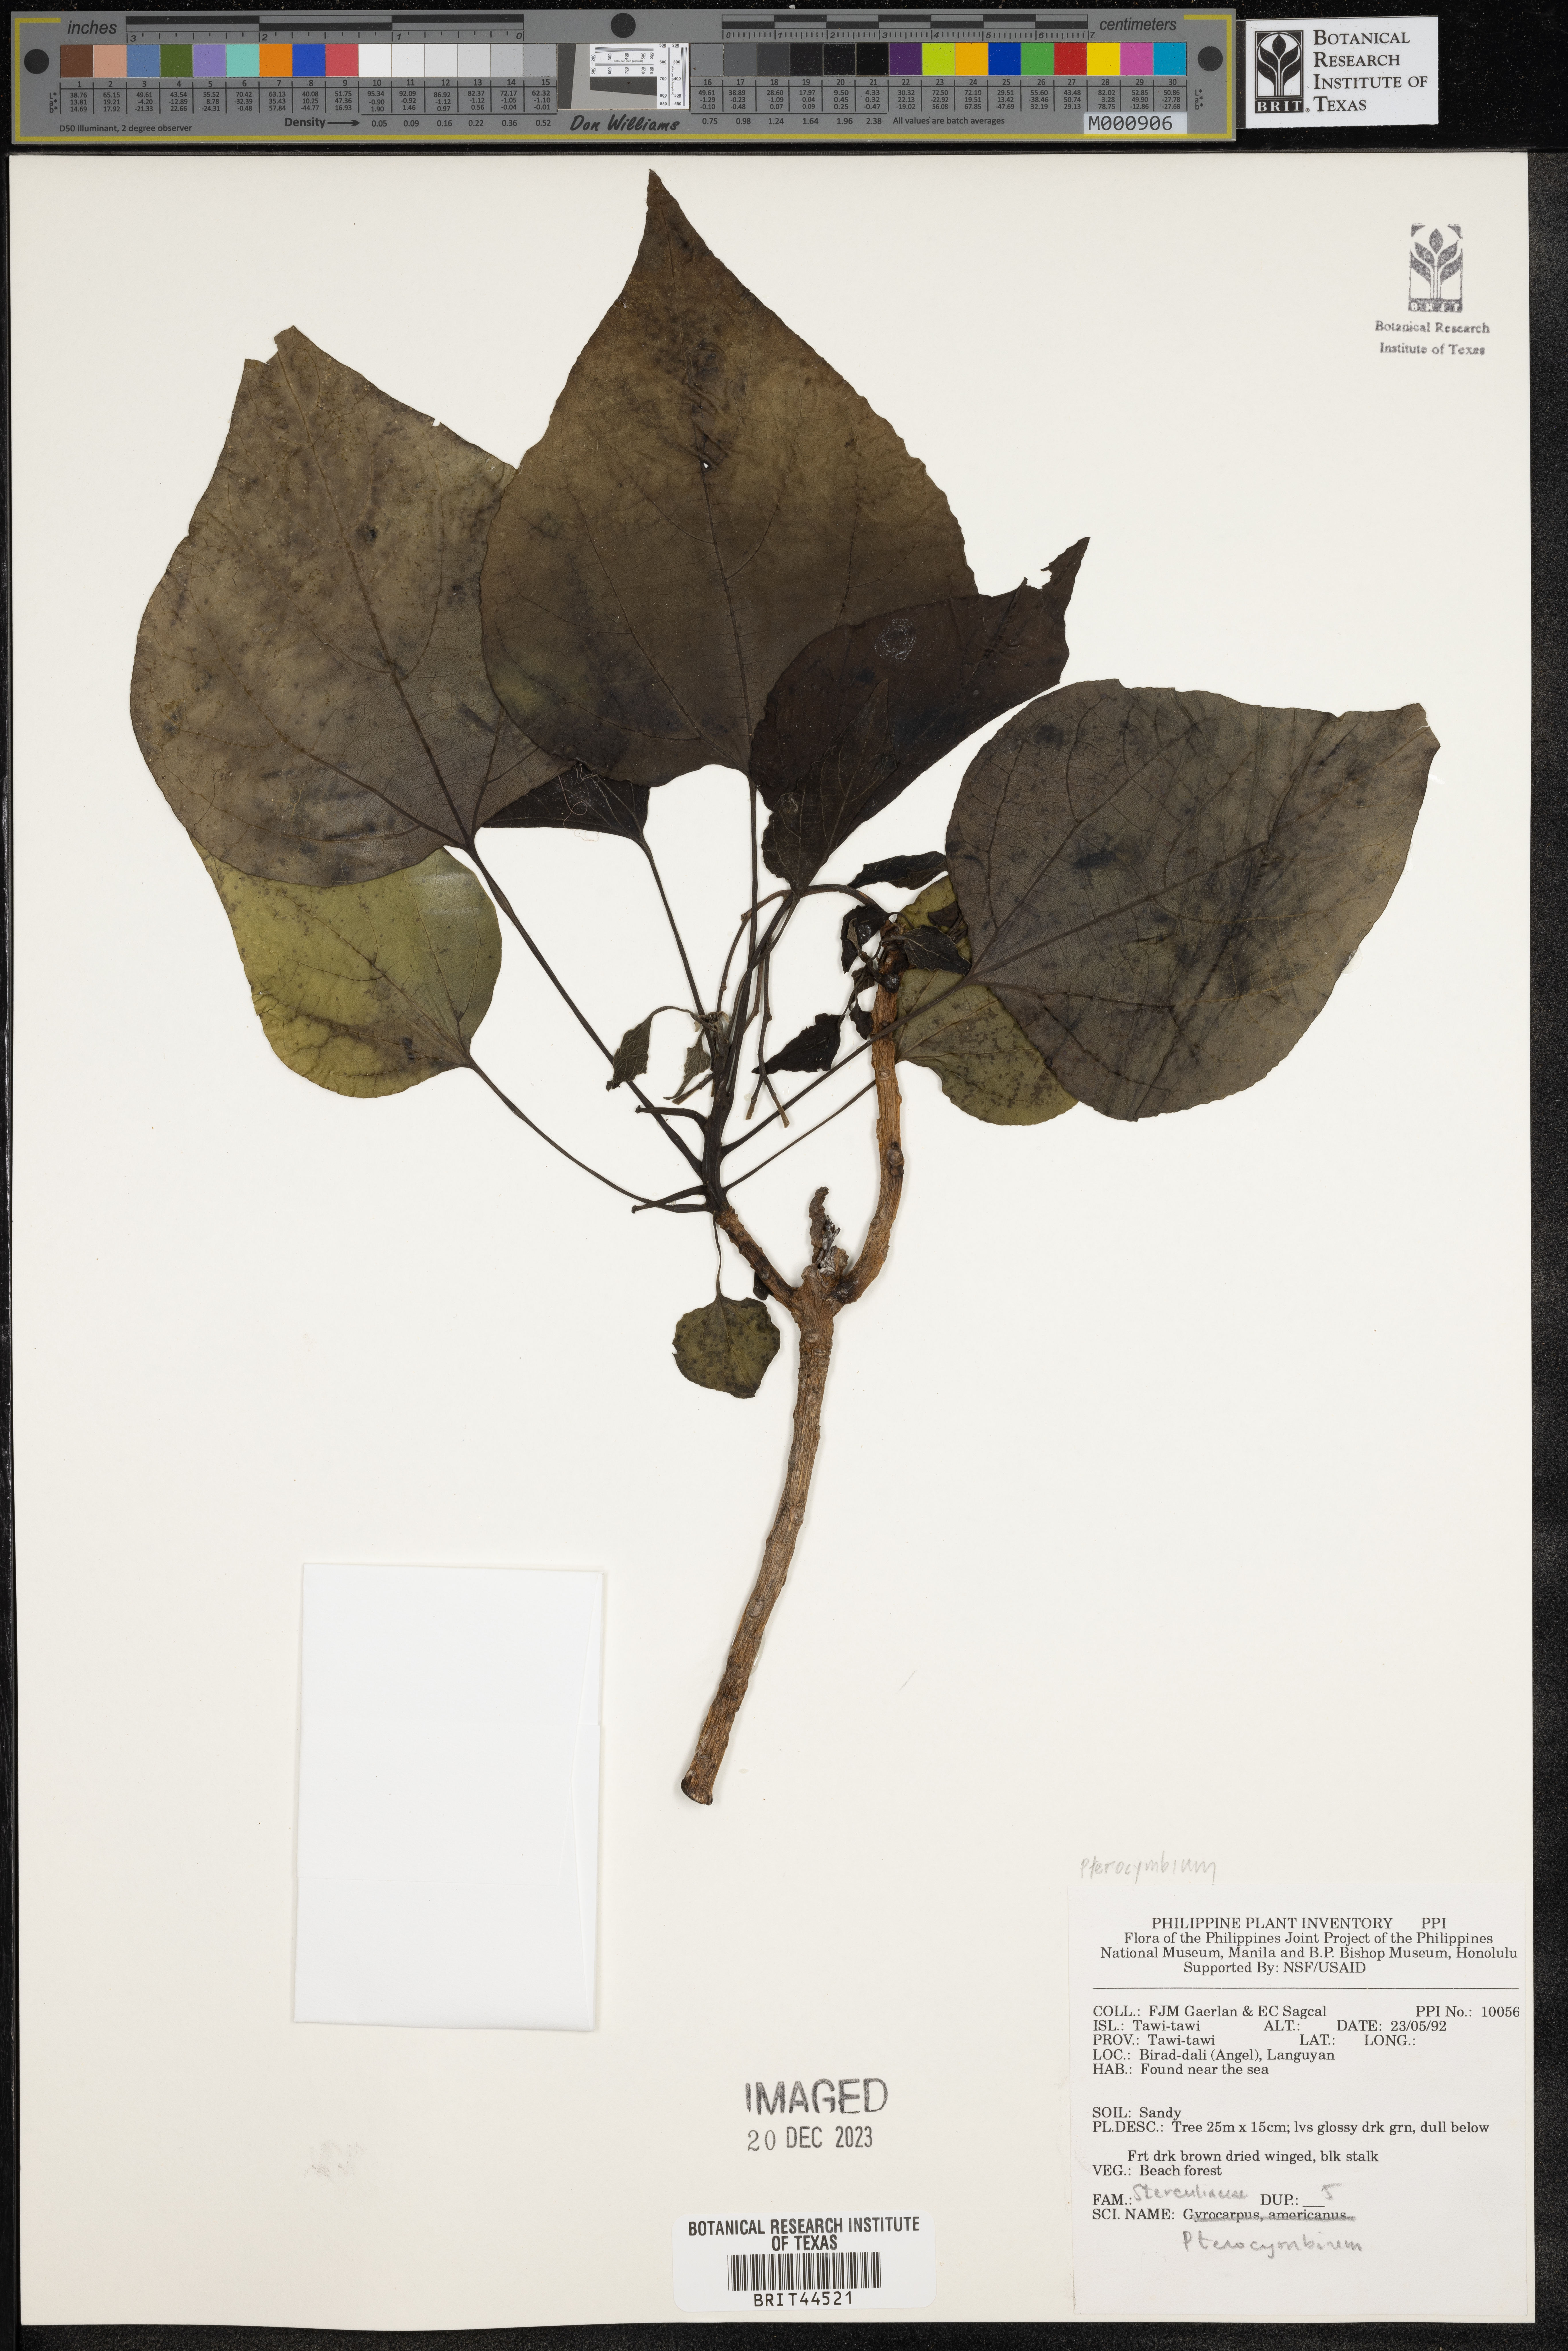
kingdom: Plantae
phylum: Tracheophyta
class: Magnoliopsida
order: Malvales
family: Malvaceae
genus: Pterocymbium
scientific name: Pterocymbium
